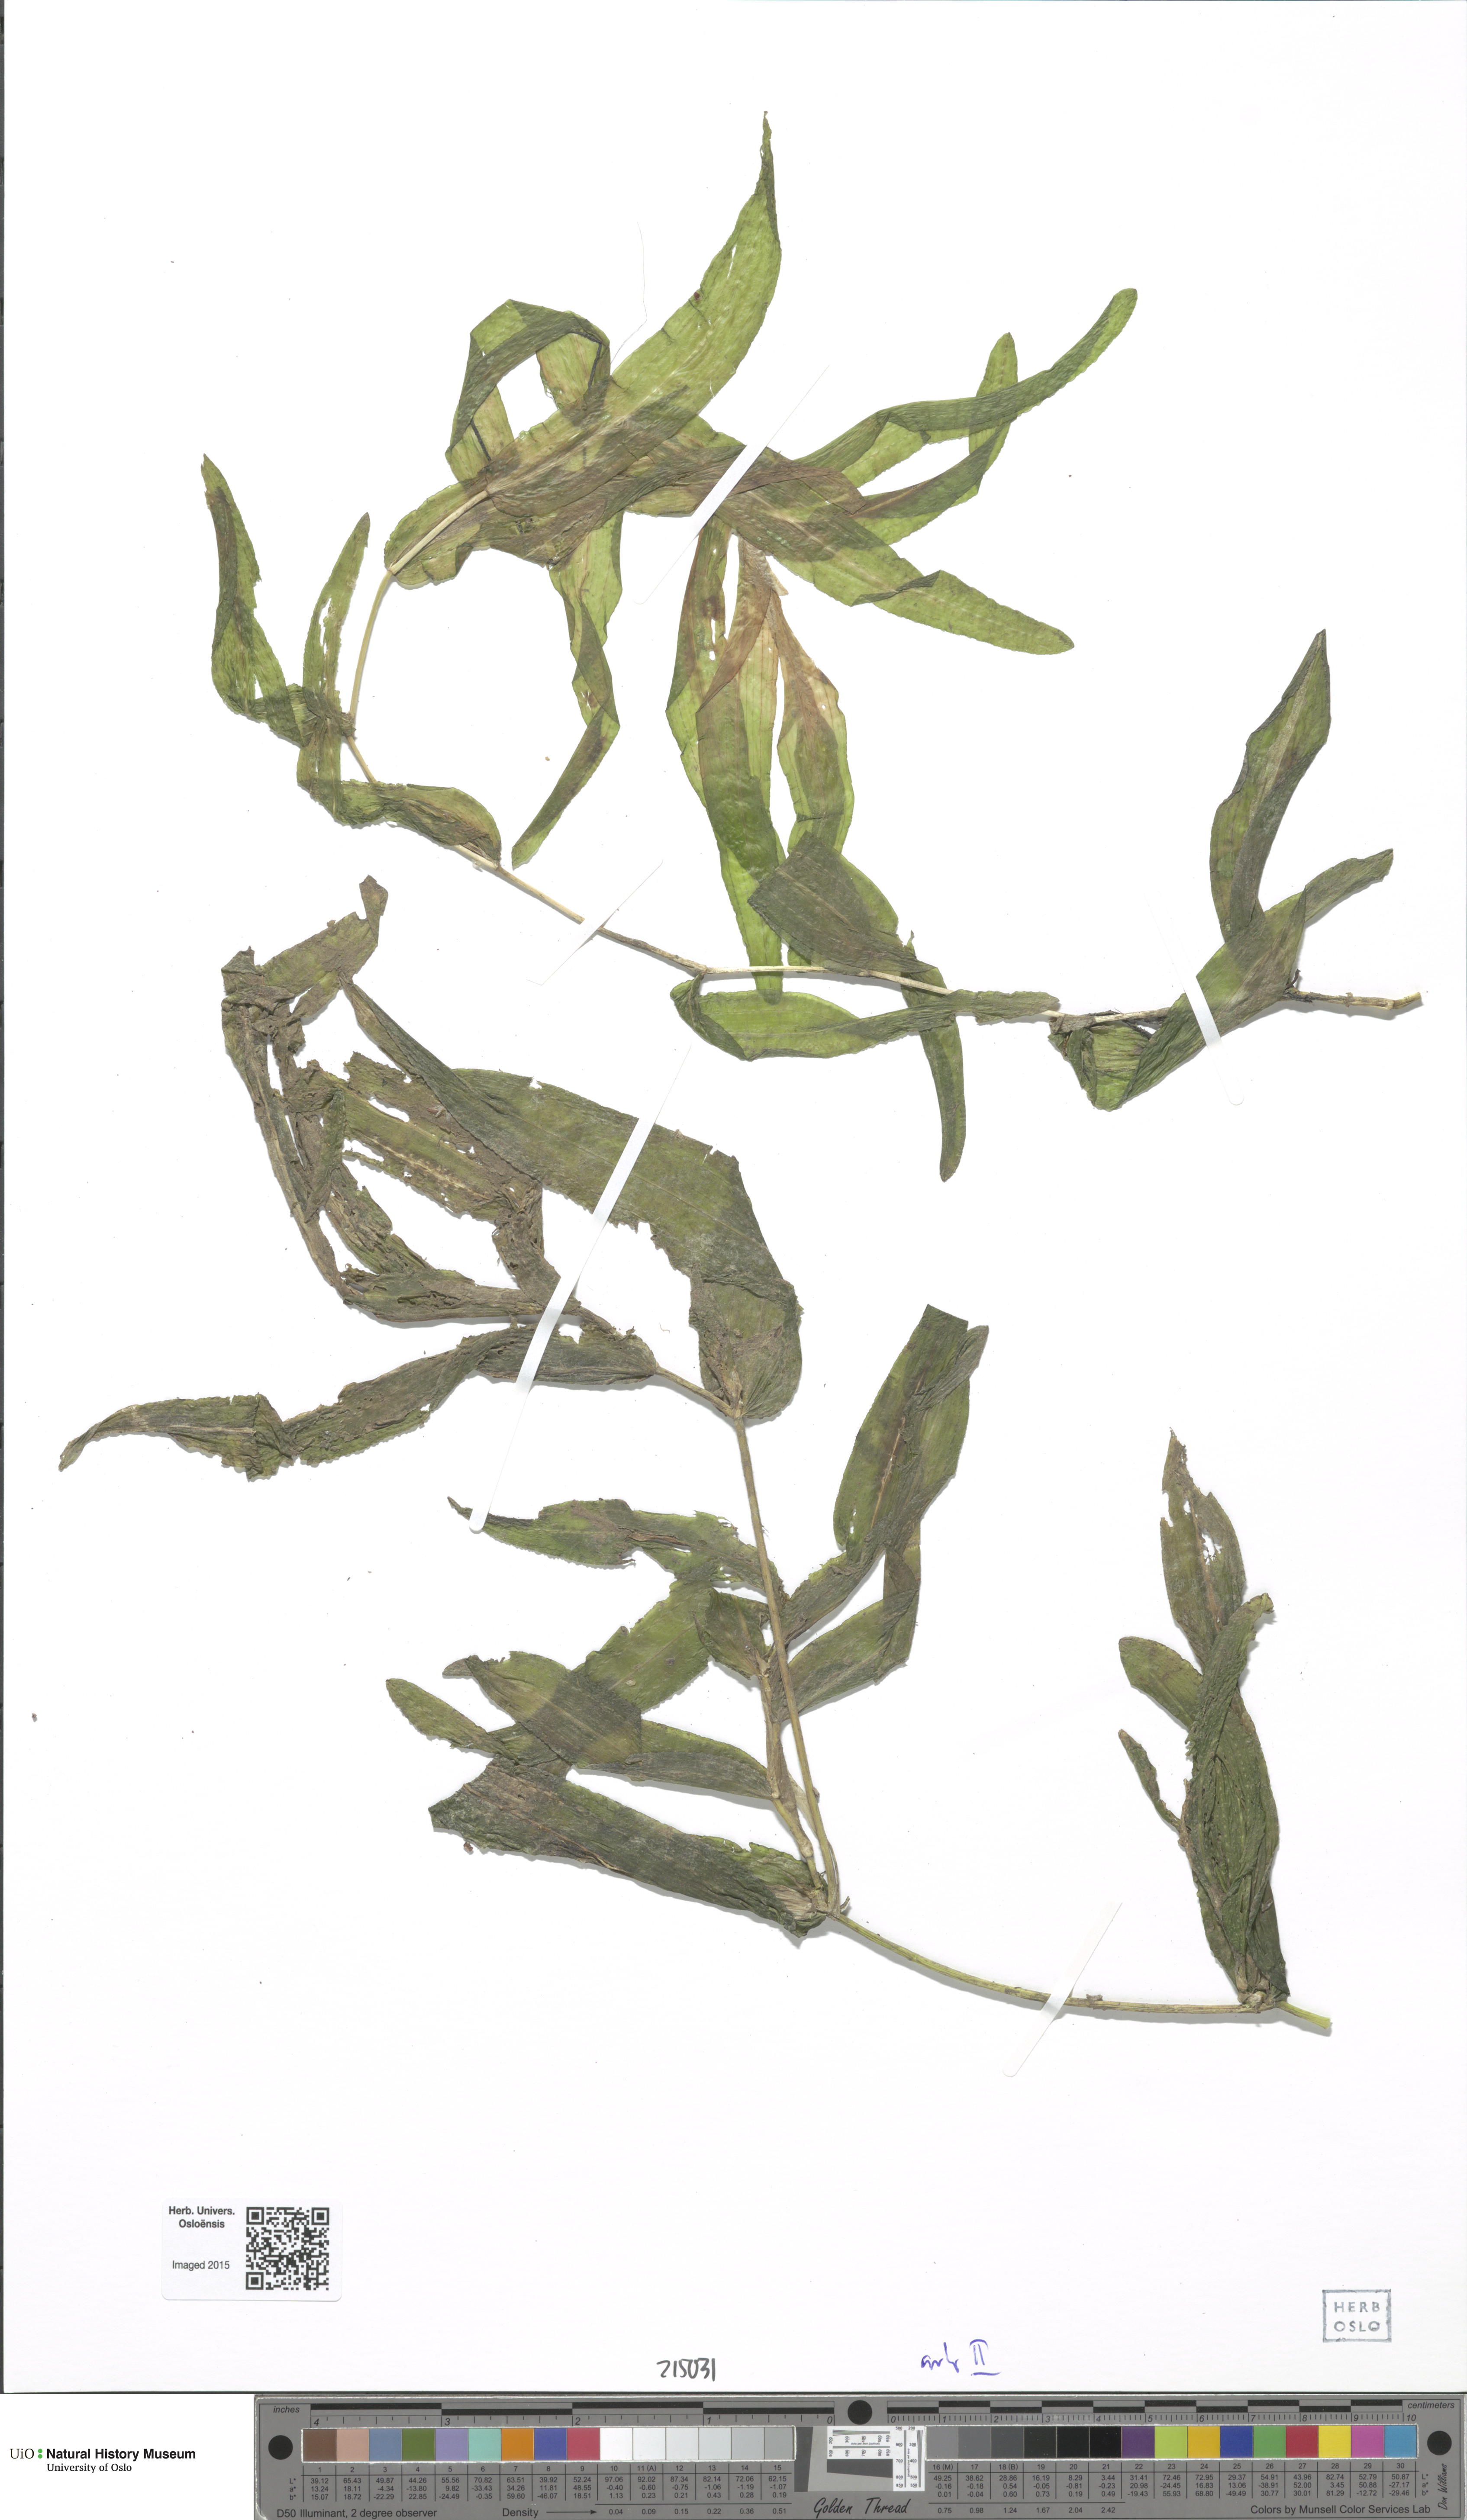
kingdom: Plantae
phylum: Tracheophyta
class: Liliopsida
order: Alismatales
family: Potamogetonaceae
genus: Potamogeton
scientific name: Potamogeton praelongus
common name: Long-stalked pondweed
